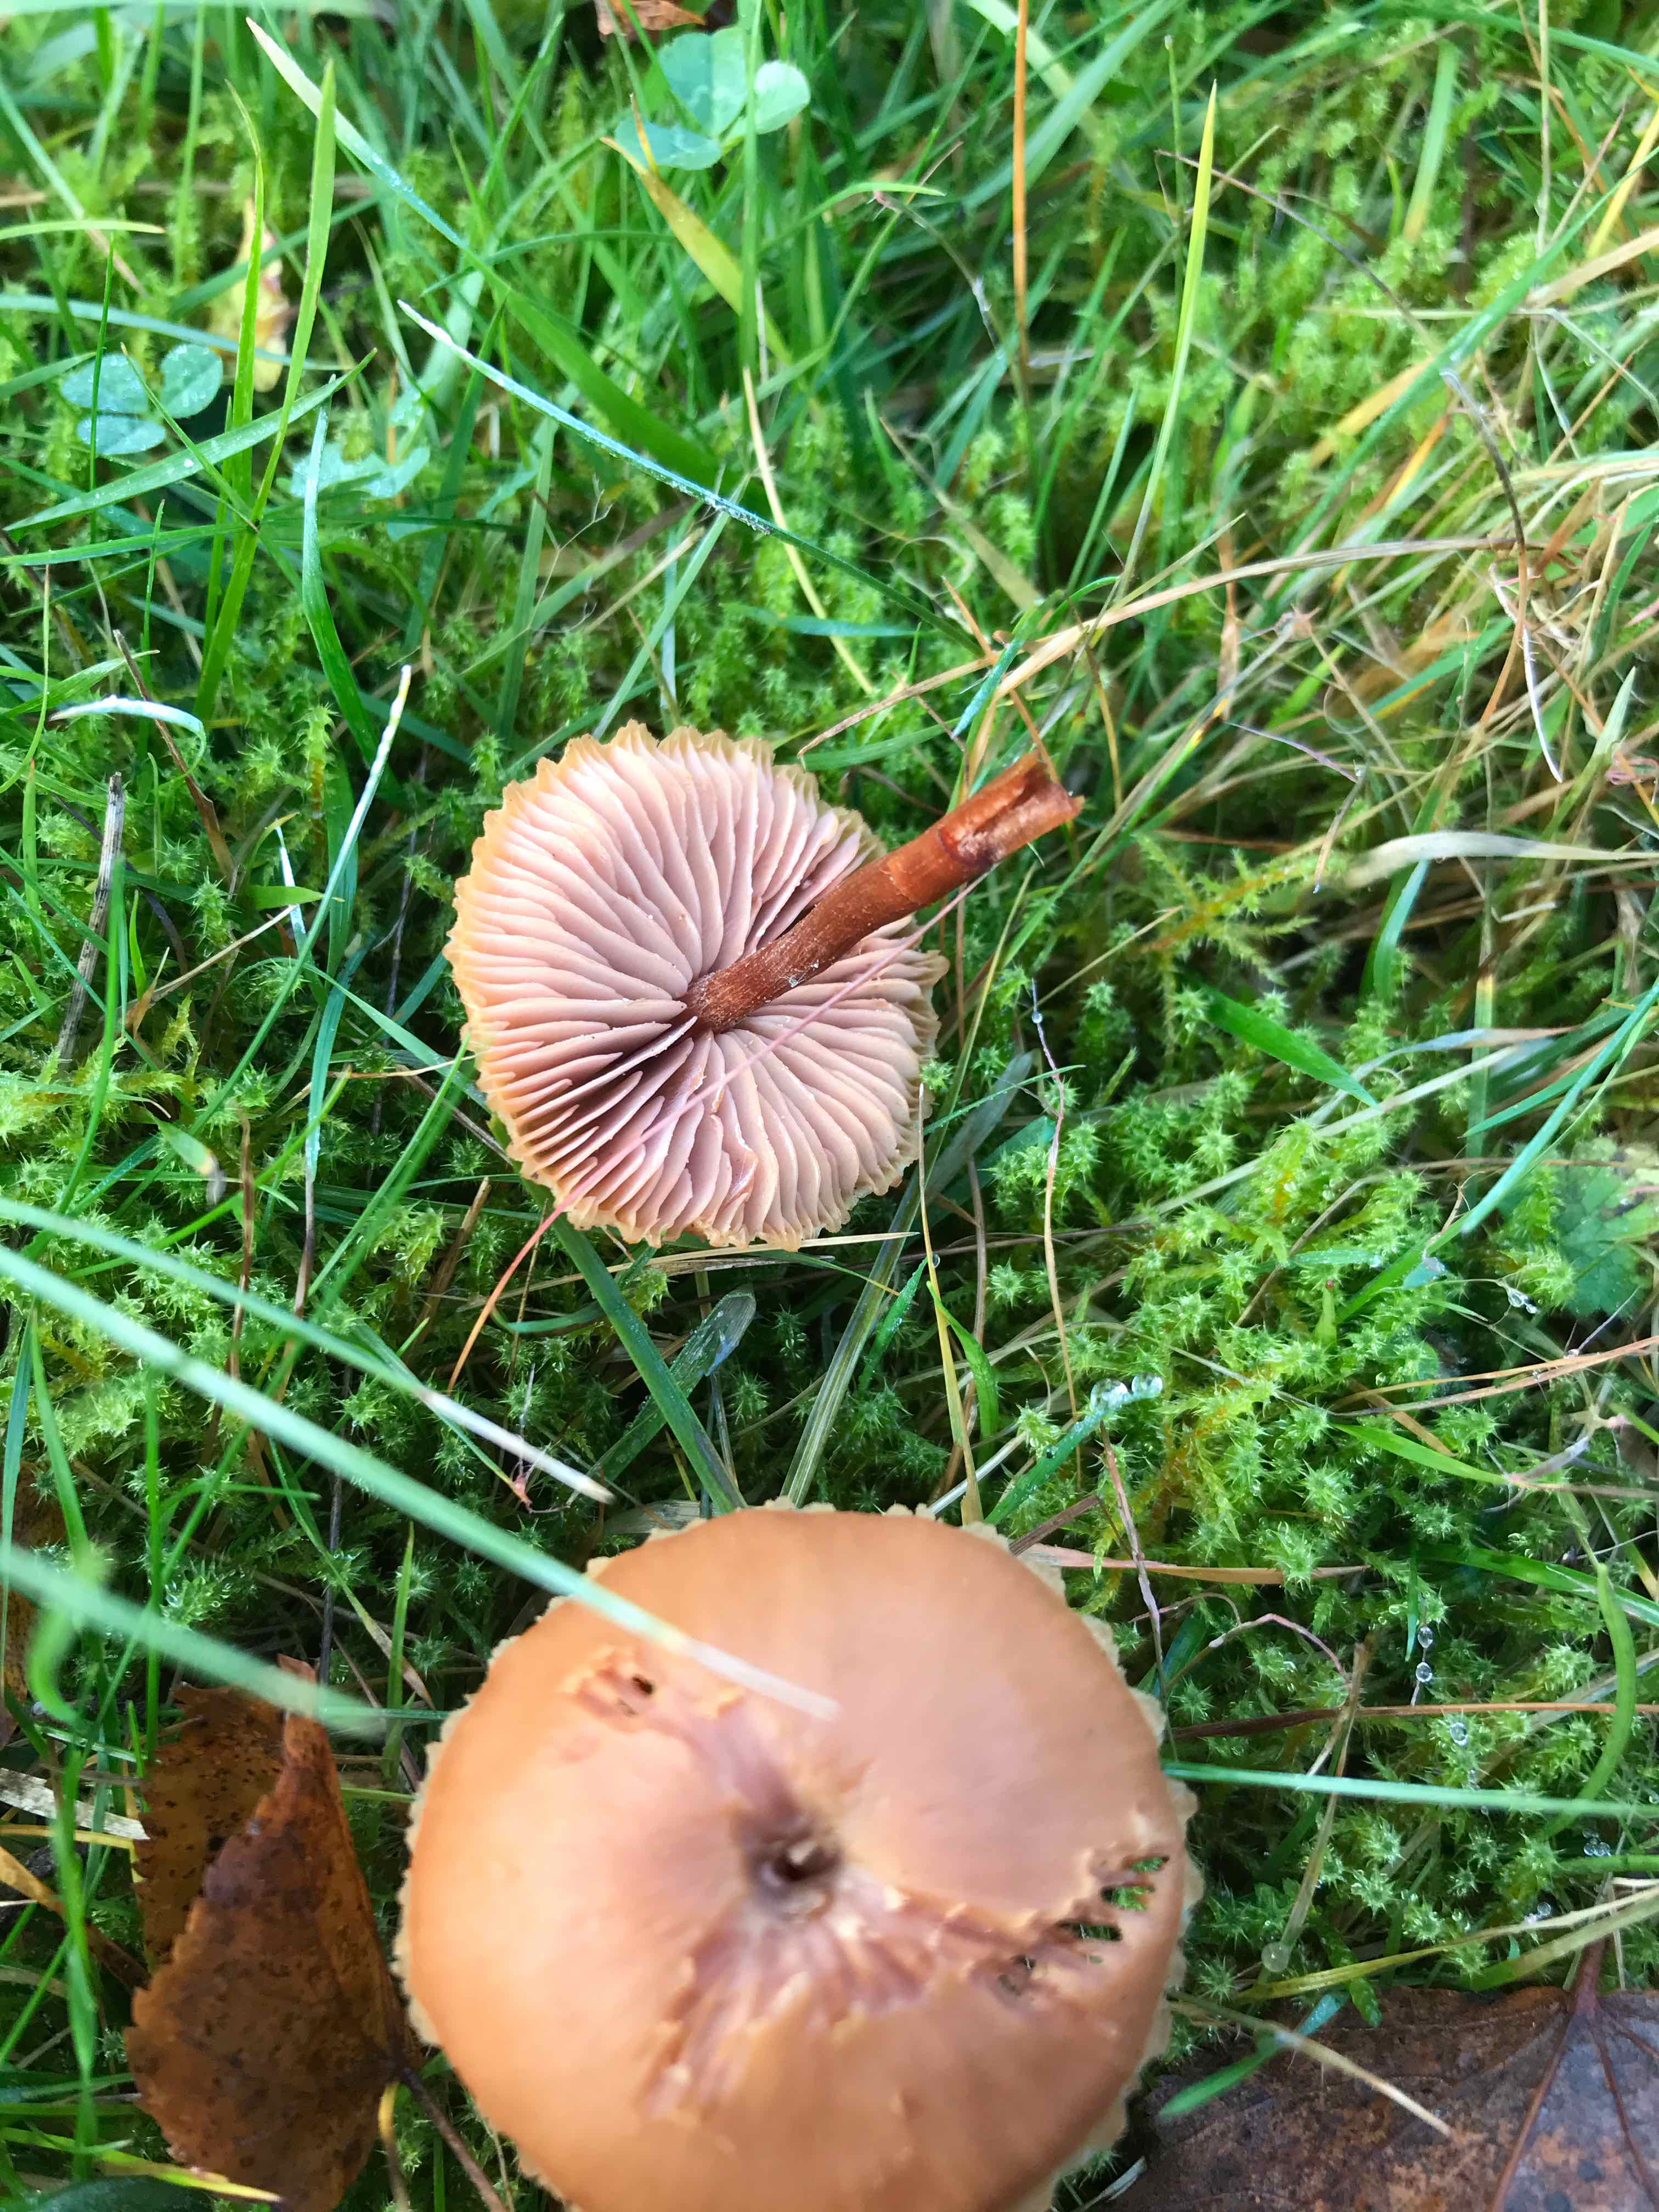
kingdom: Fungi
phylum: Basidiomycota
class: Agaricomycetes
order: Agaricales
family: Hydnangiaceae
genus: Laccaria
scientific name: Laccaria
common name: ametysthat
